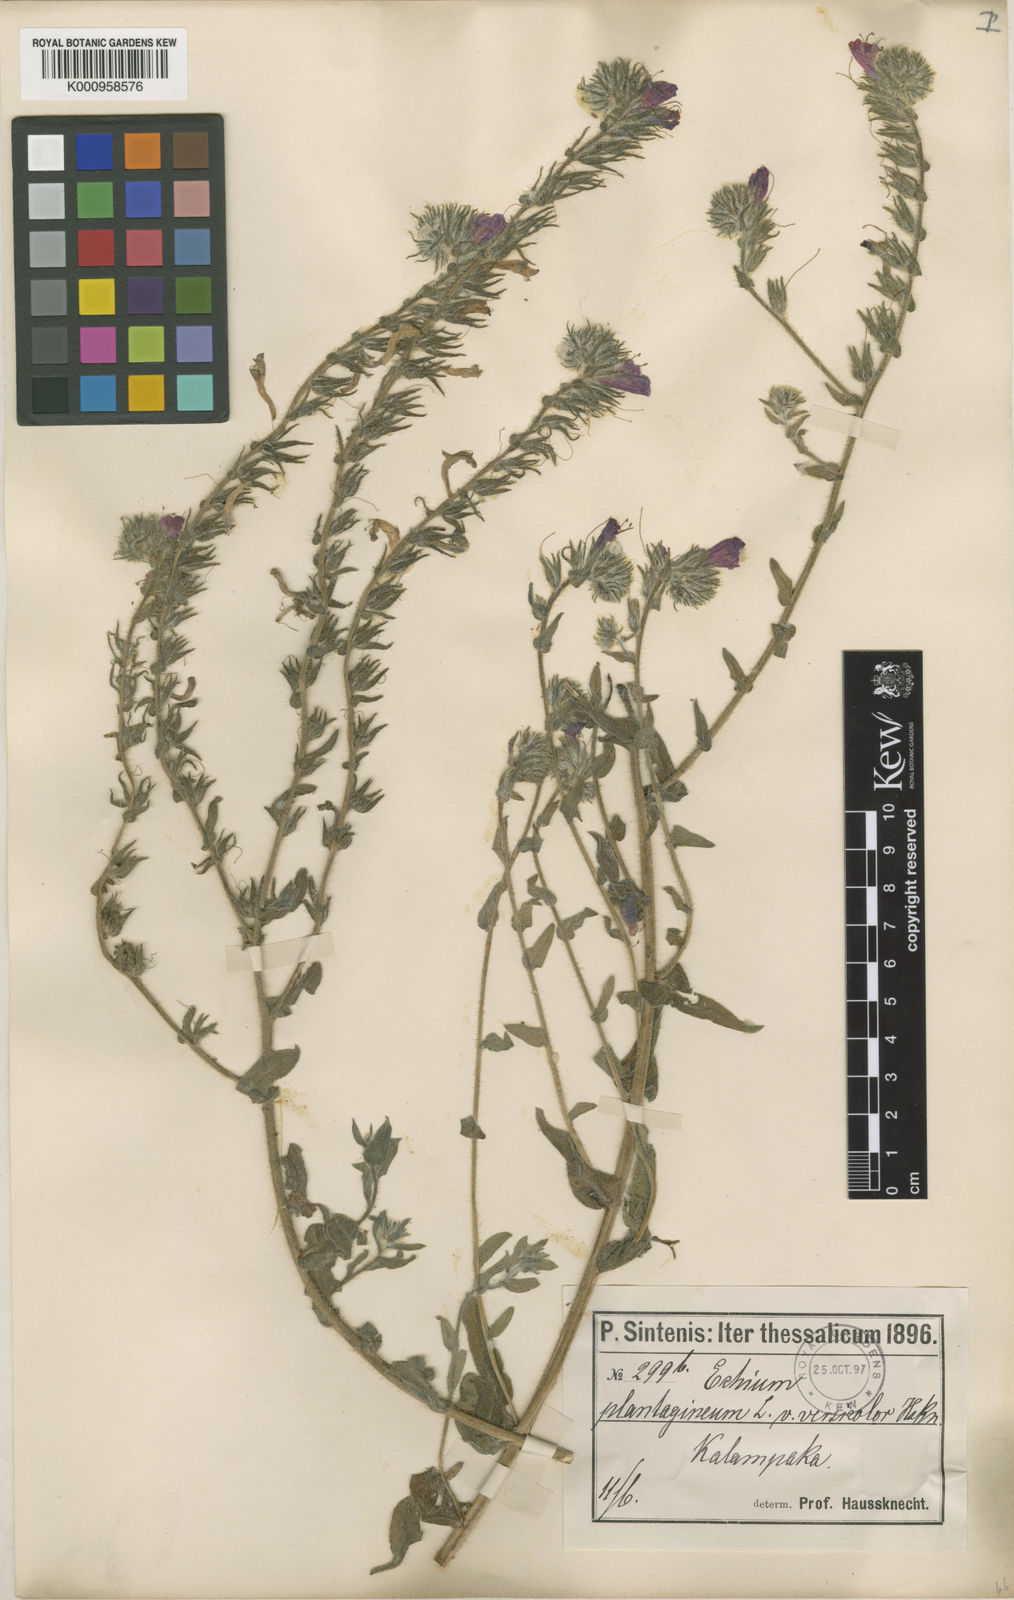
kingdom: Plantae
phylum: Tracheophyta
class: Magnoliopsida
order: Boraginales
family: Boraginaceae
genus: Echium
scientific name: Echium plantagineum
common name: Purple viper's-bugloss
